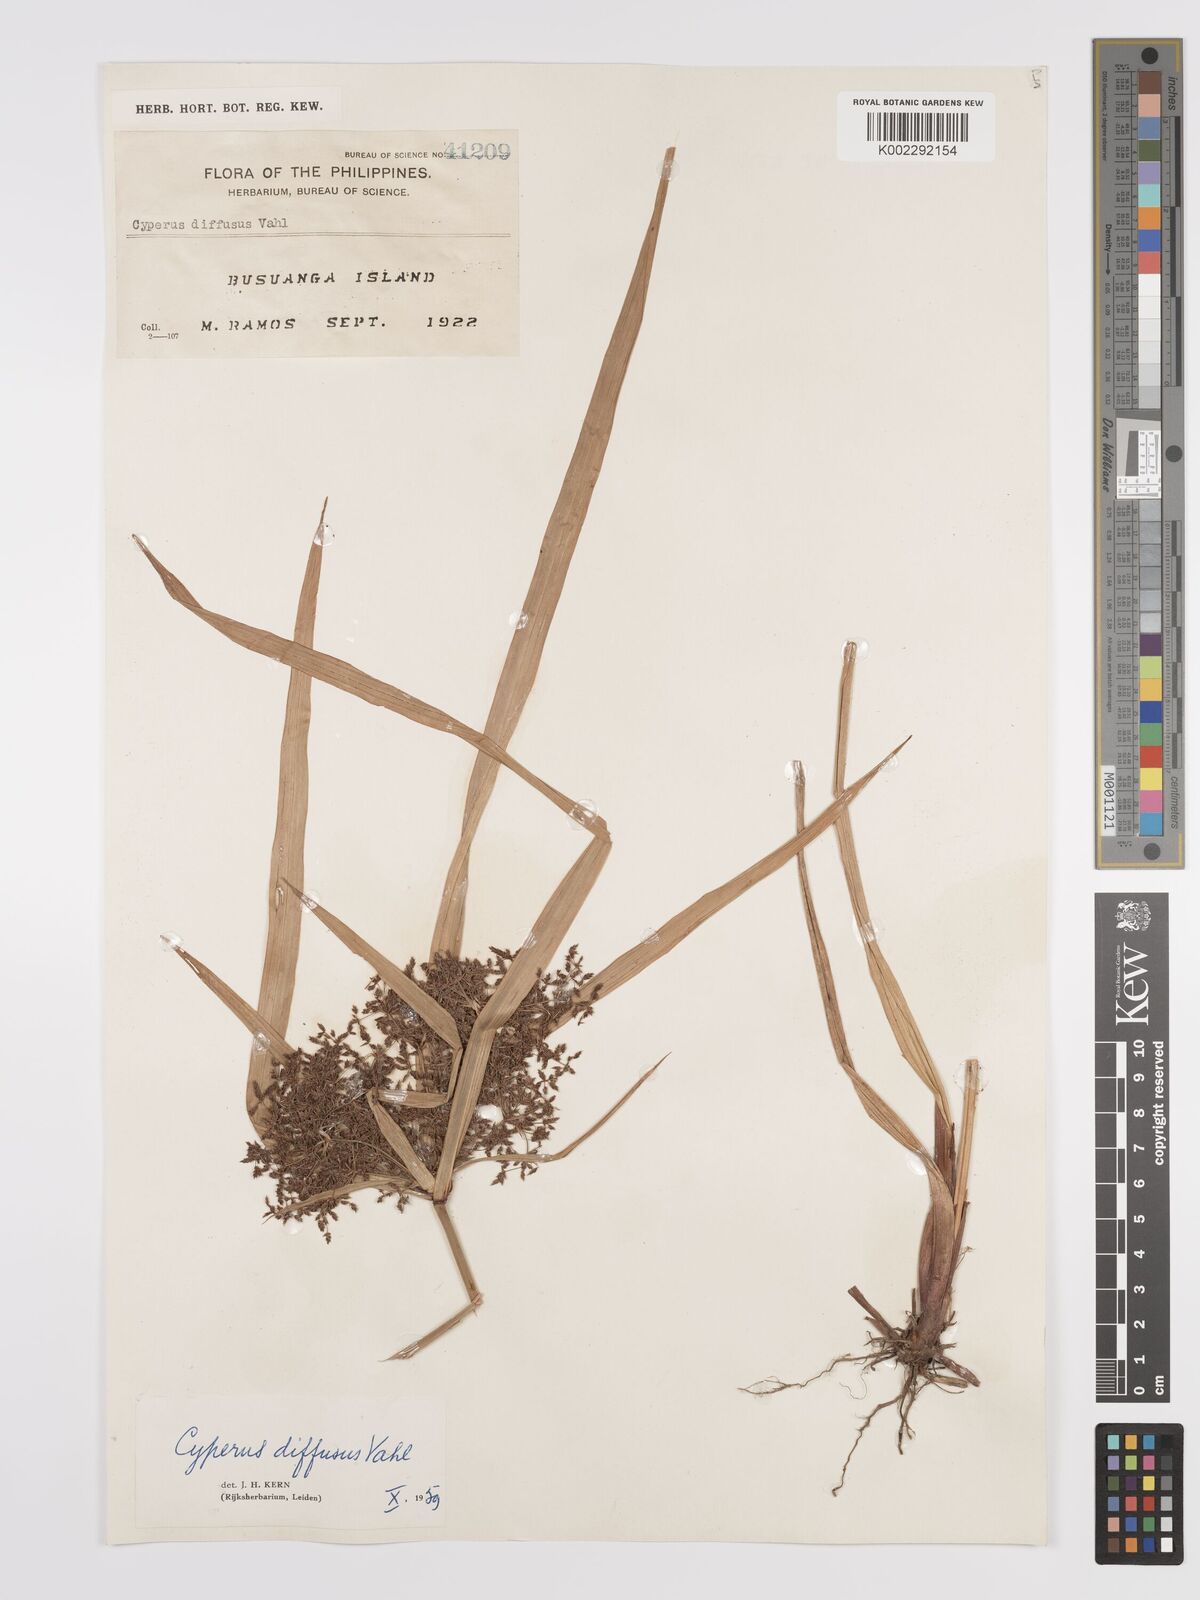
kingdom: Plantae
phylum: Tracheophyta
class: Liliopsida
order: Poales
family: Cyperaceae
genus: Cyperus
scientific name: Cyperus diffusus
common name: Dwarf umbrella grass
